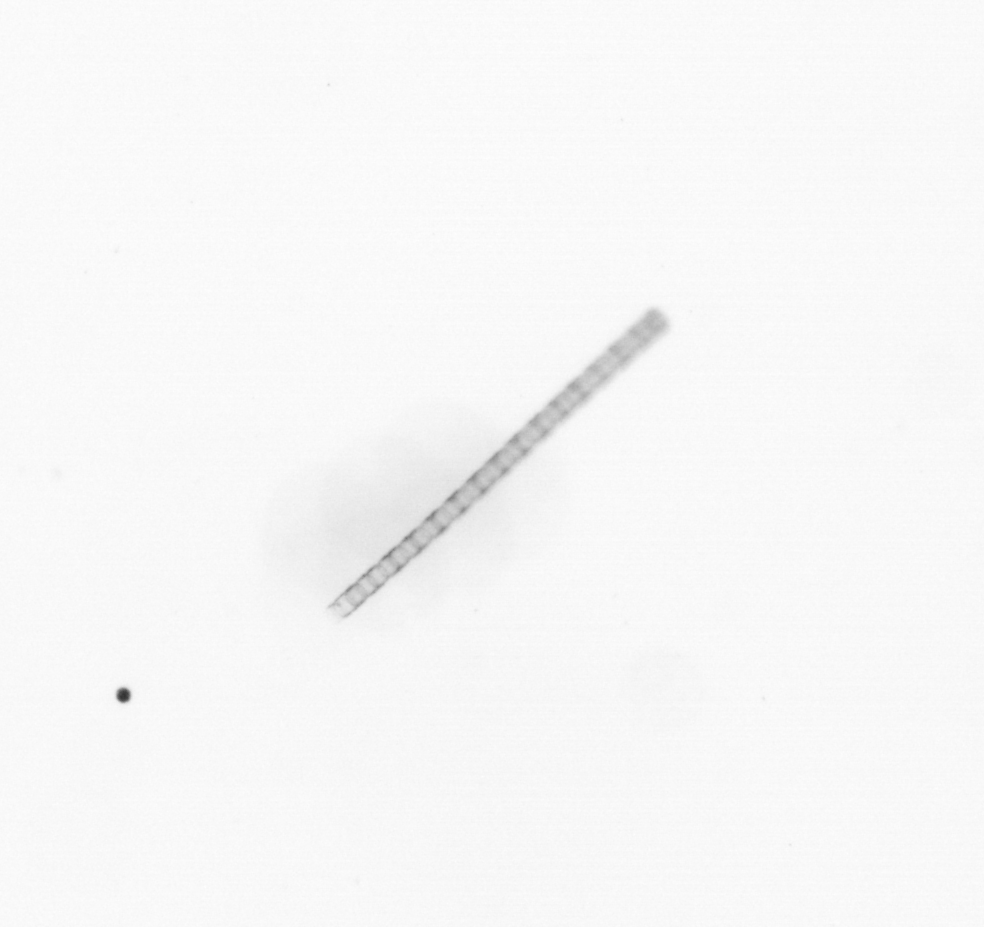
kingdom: Chromista
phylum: Ochrophyta
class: Bacillariophyceae
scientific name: Bacillariophyceae
